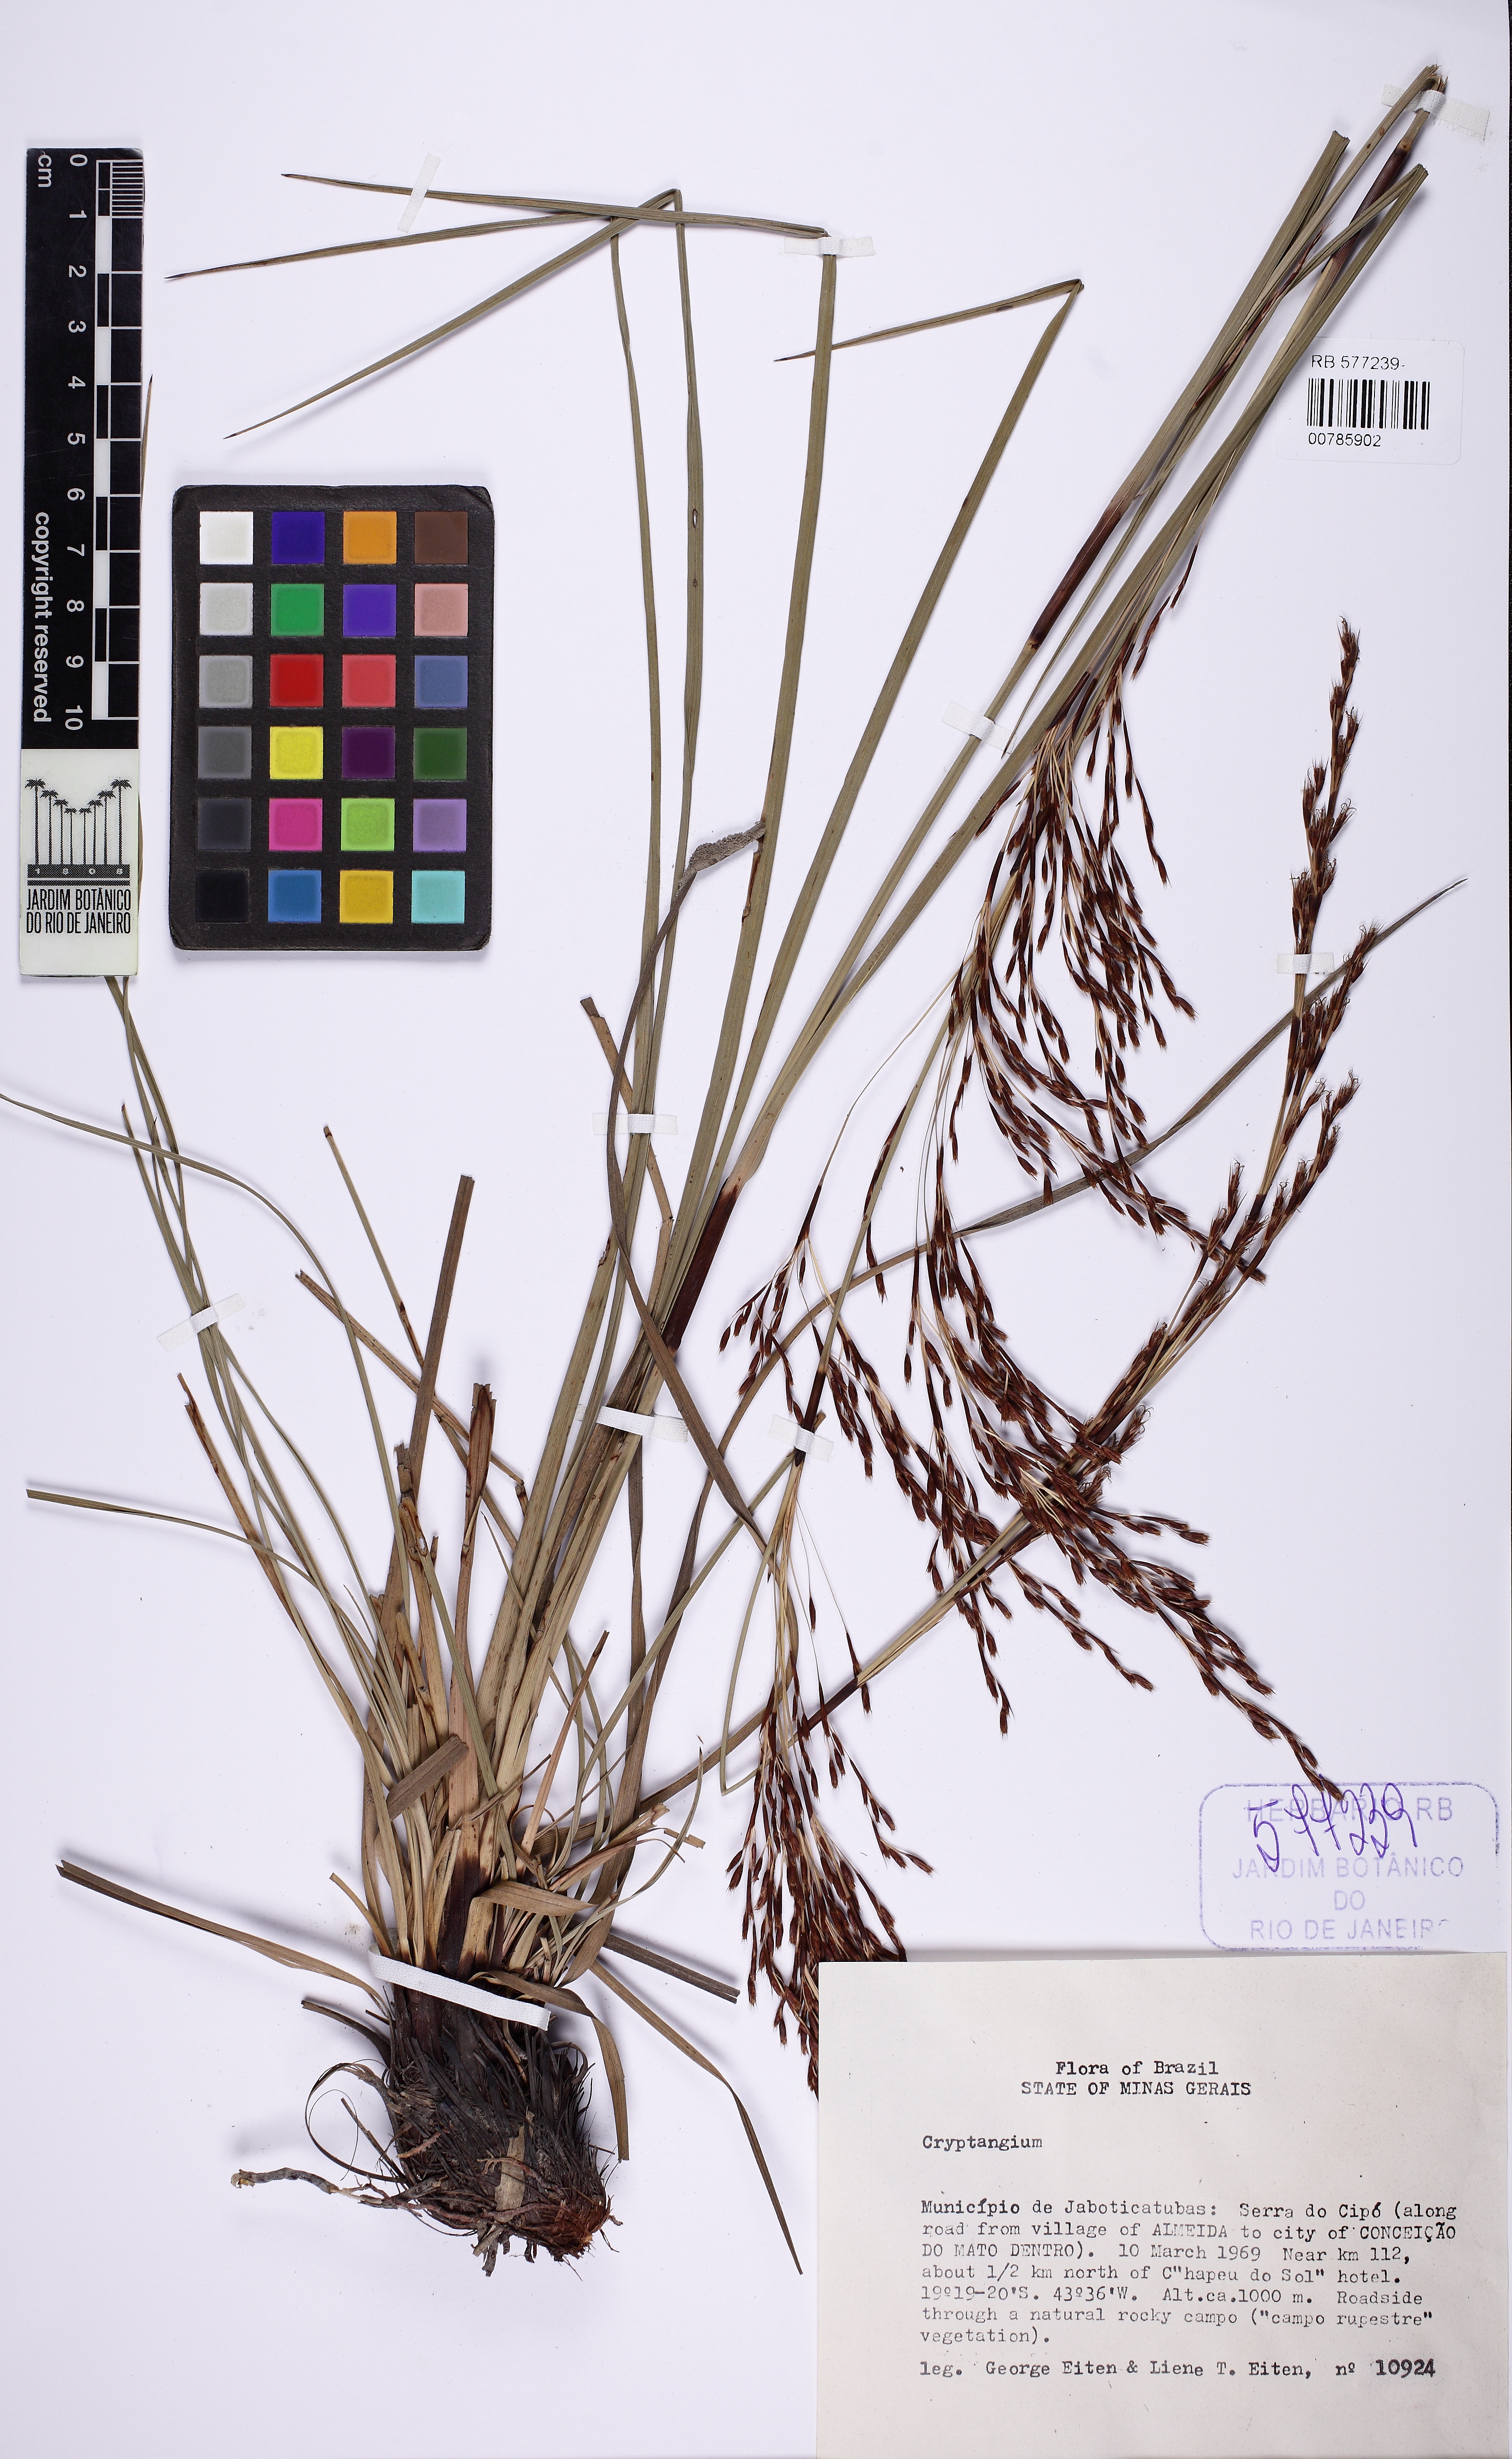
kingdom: Plantae
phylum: Tracheophyta
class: Liliopsida
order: Poales
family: Cyperaceae
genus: Cryptangium
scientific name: Cryptangium
